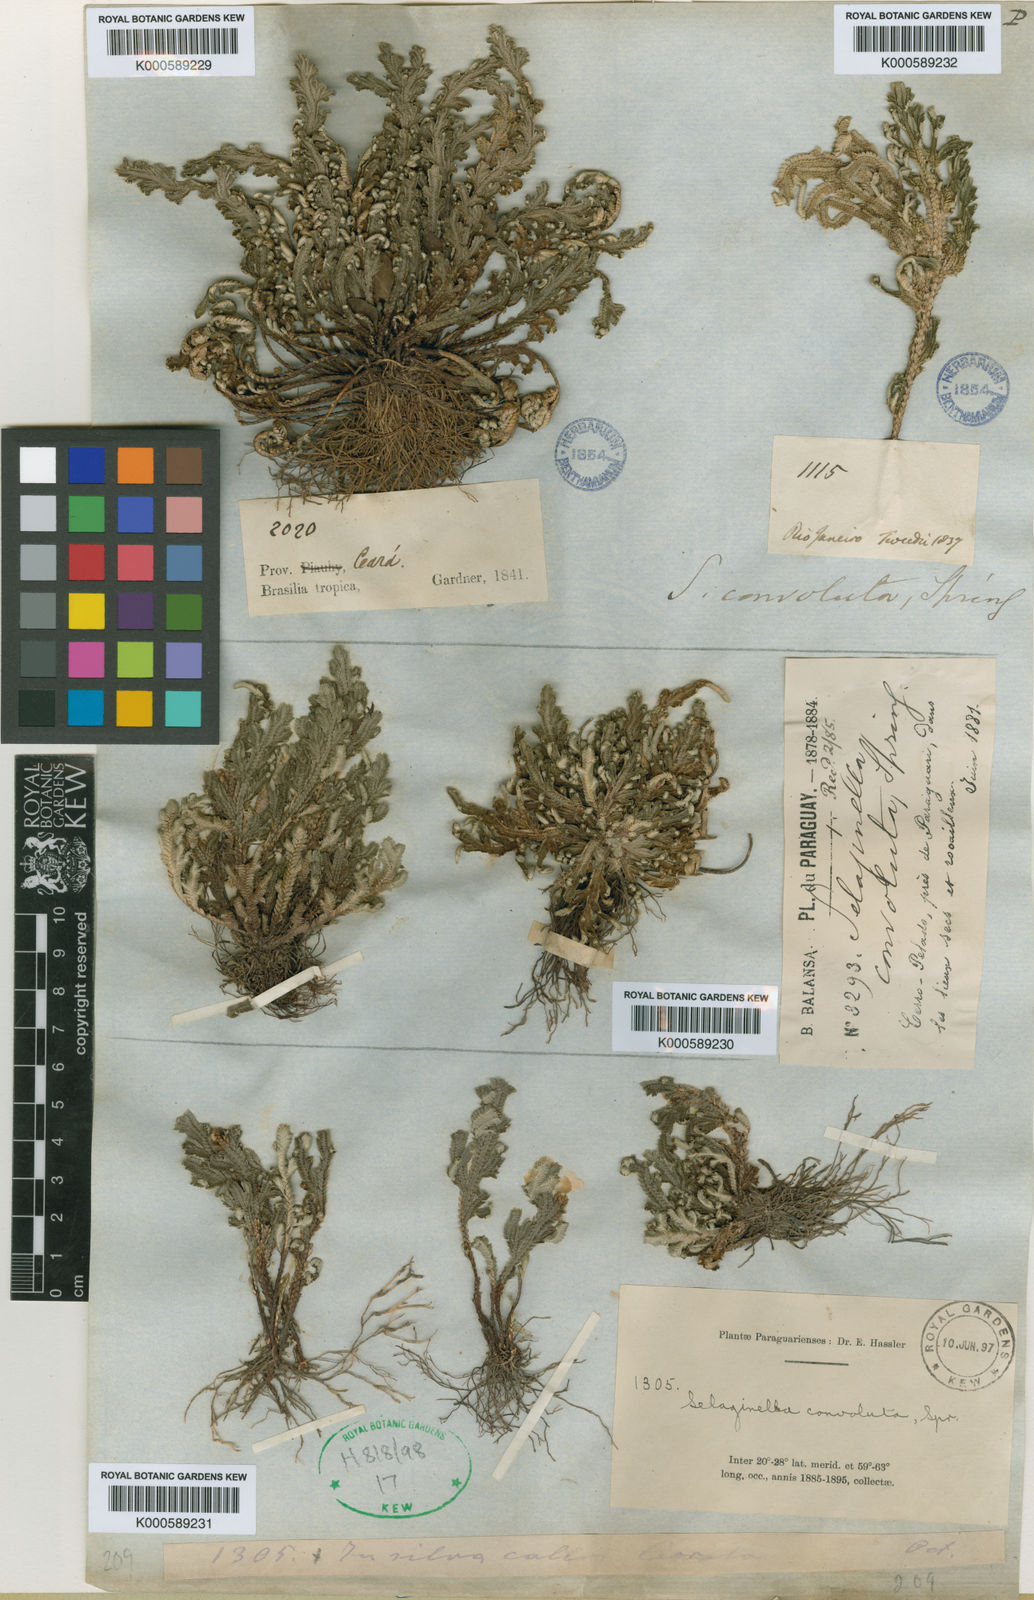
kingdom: Plantae
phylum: Tracheophyta
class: Lycopodiopsida
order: Selaginellales
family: Selaginellaceae
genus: Selaginella
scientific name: Selaginella convoluta
